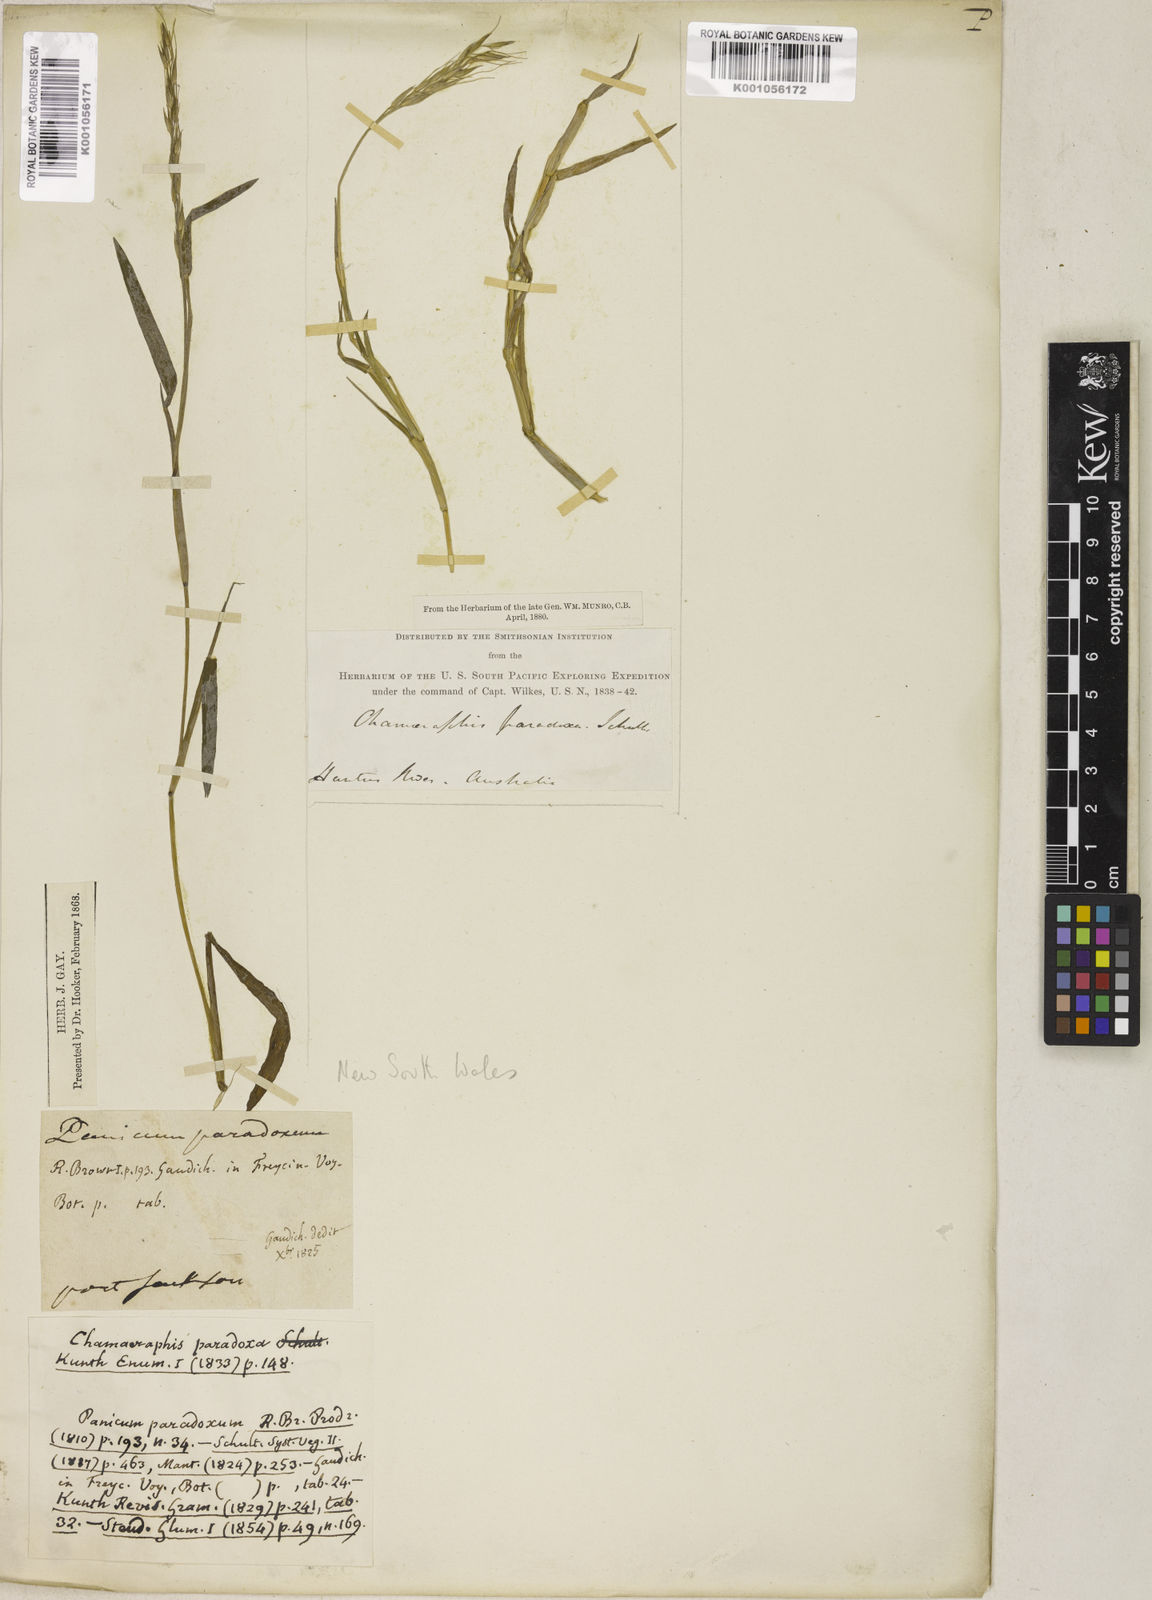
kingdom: Plantae
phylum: Tracheophyta
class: Liliopsida
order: Poales
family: Poaceae
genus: Pseudoraphis
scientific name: Pseudoraphis paradoxa
